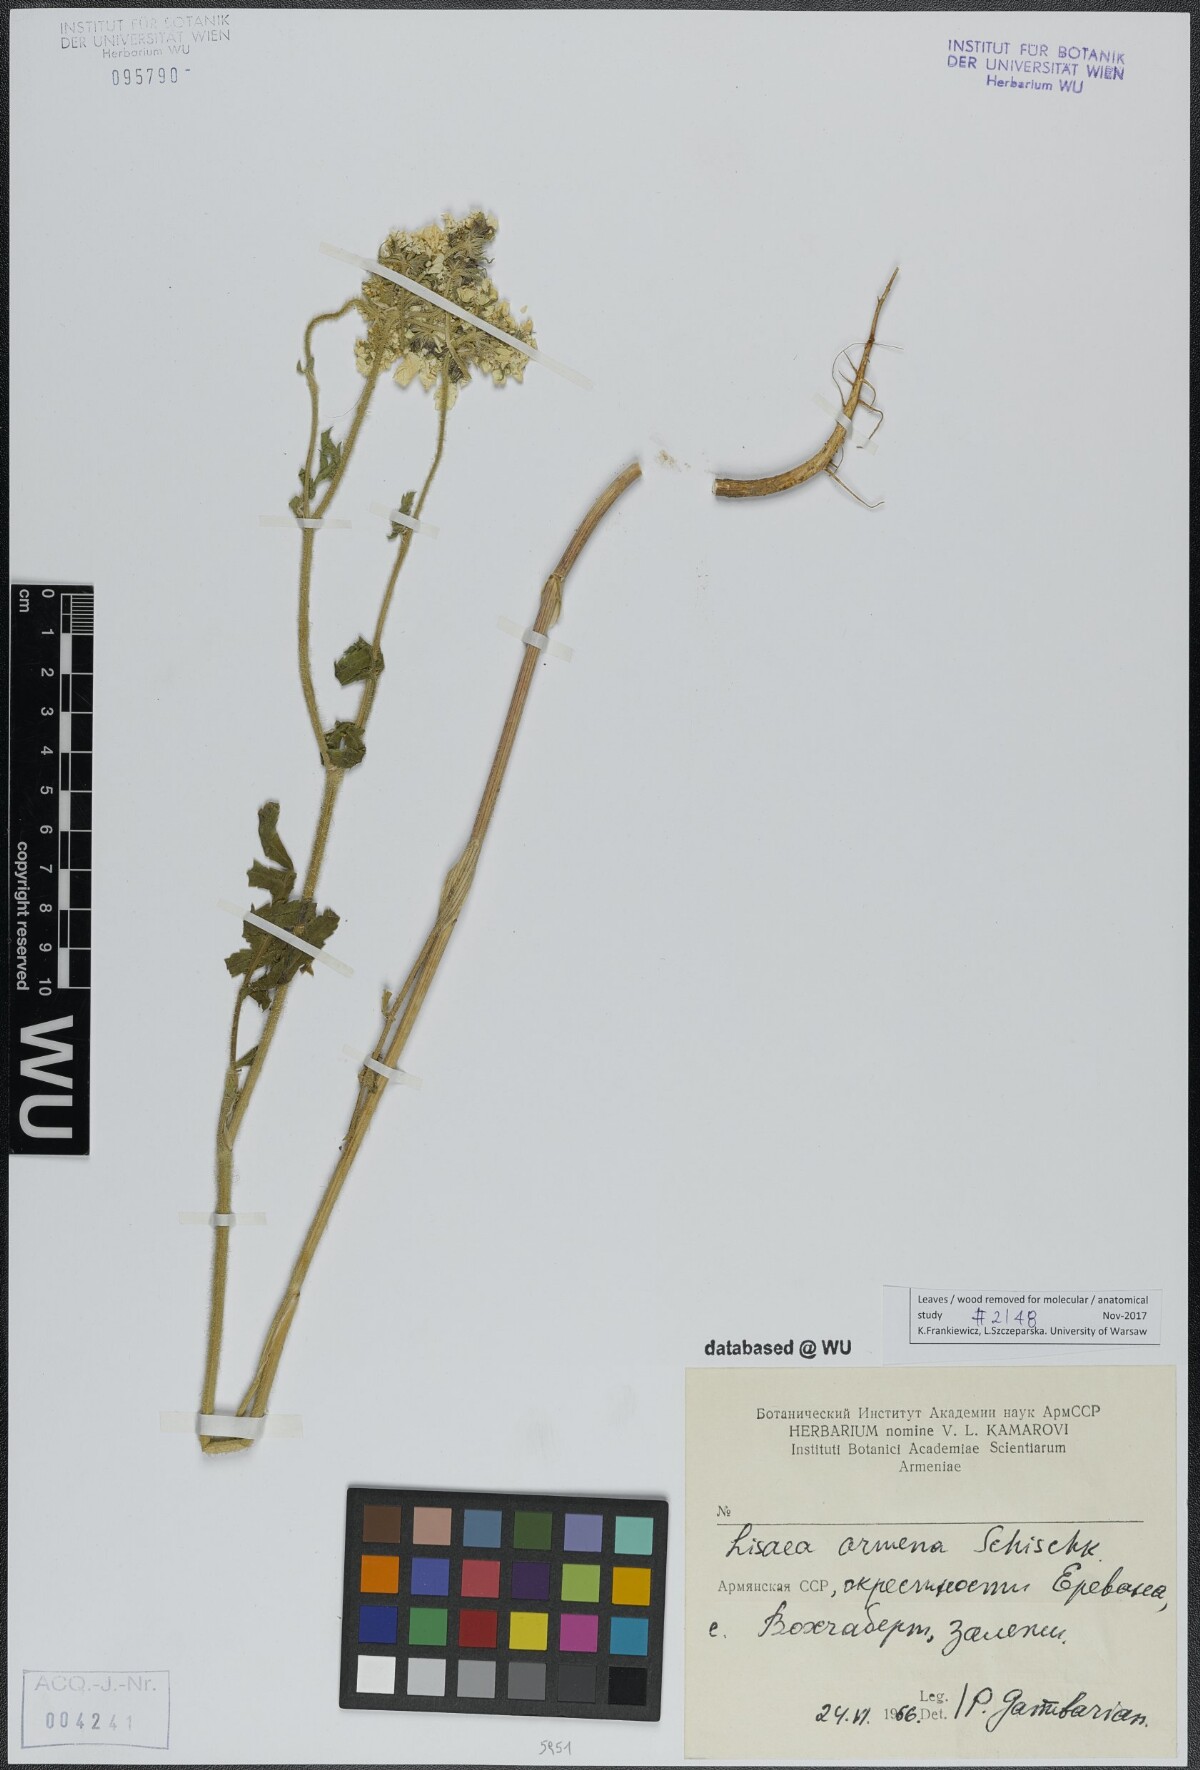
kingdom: Plantae
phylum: Tracheophyta
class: Magnoliopsida
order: Apiales
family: Apiaceae
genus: Lisaea
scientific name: Lisaea papyracea
